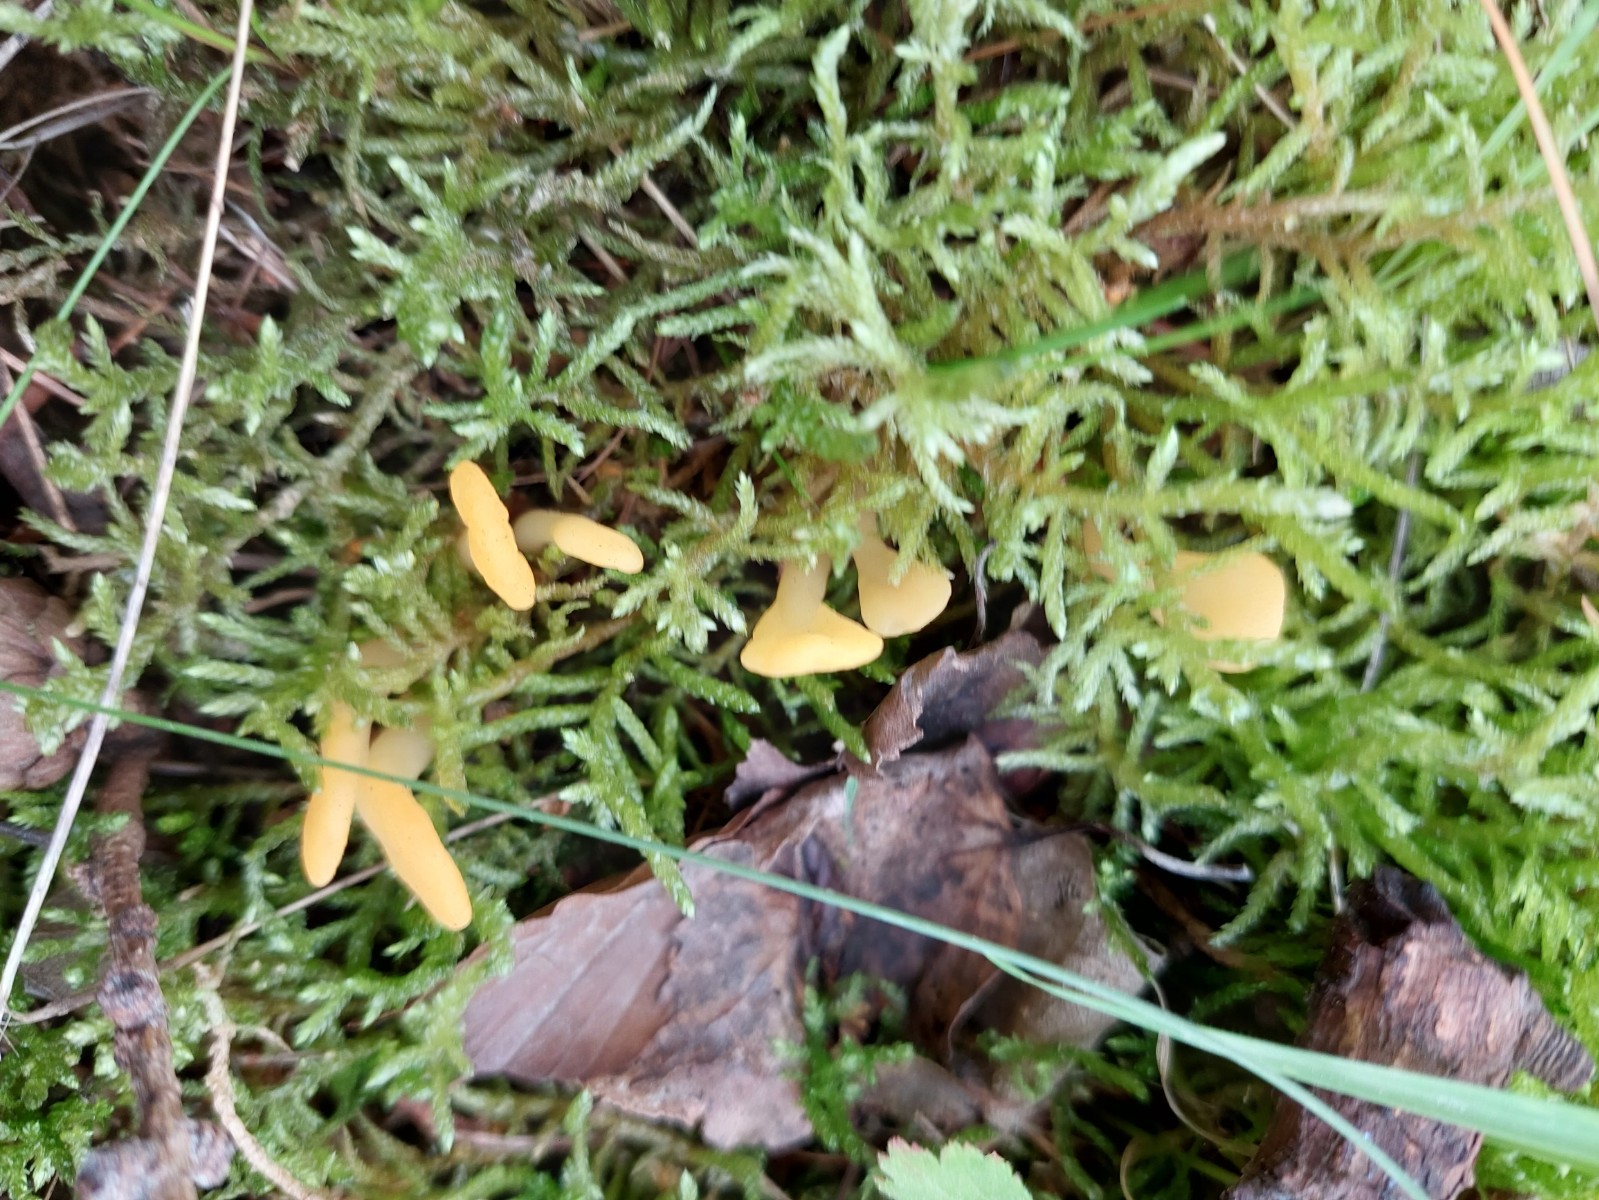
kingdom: Fungi
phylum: Ascomycota
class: Leotiomycetes
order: Rhytismatales
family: Cudoniaceae
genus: Spathularia
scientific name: Spathularia flavida
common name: gul spatelsvamp
